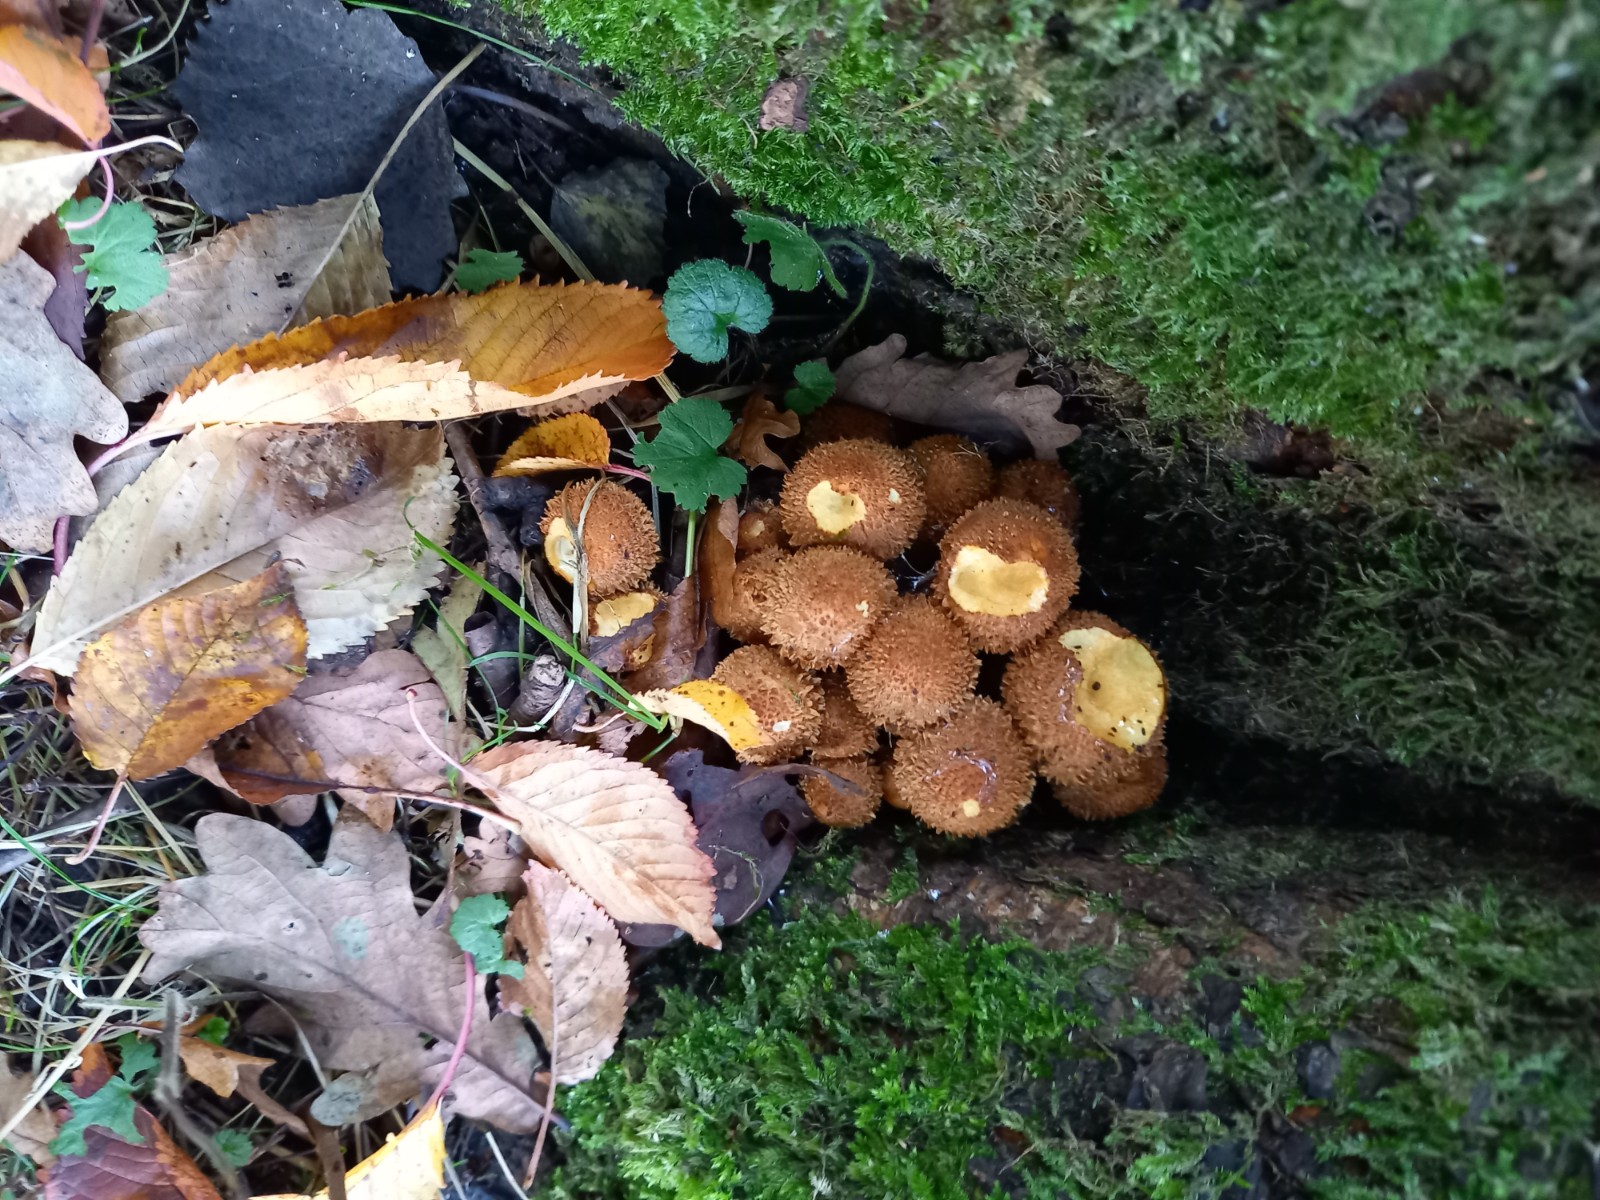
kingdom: Fungi
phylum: Basidiomycota
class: Agaricomycetes
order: Agaricales
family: Strophariaceae
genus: Pholiota
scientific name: Pholiota squarrosa
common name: krumskællet skælhat
